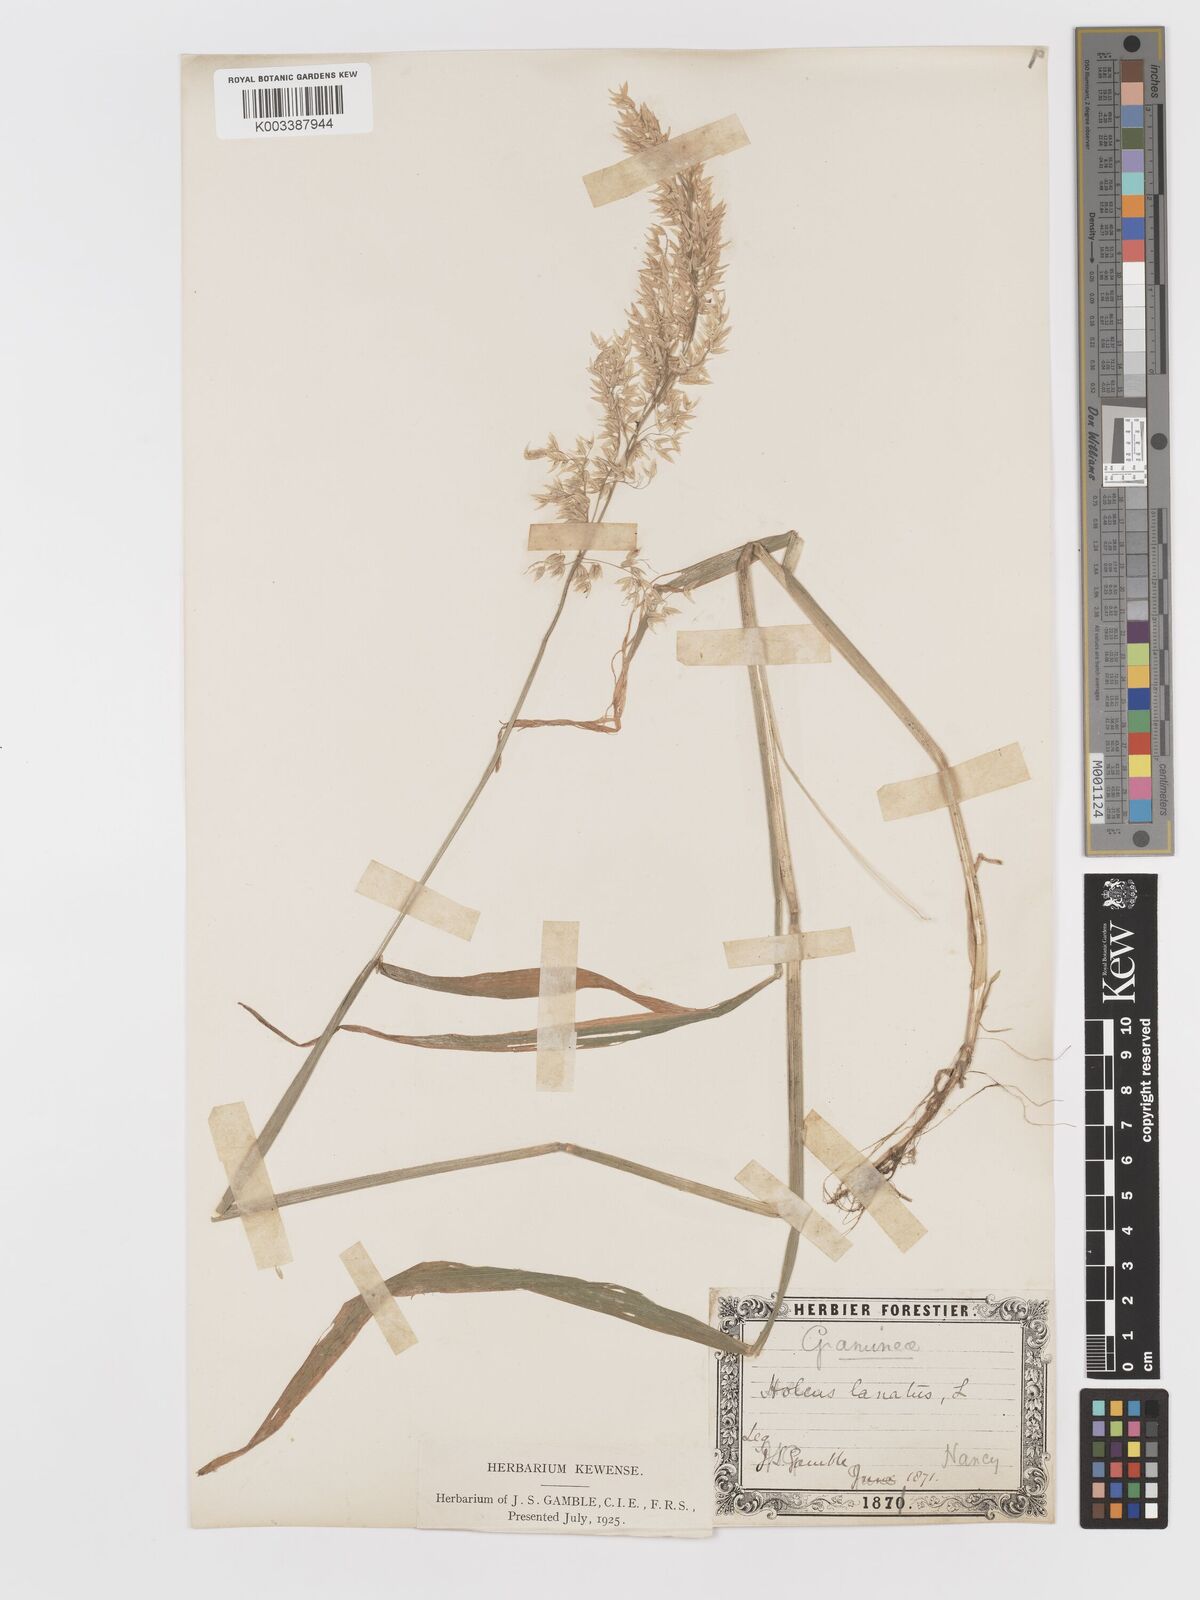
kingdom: Plantae
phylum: Tracheophyta
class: Liliopsida
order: Poales
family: Poaceae
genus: Holcus
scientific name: Holcus lanatus
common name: Yorkshire-fog
